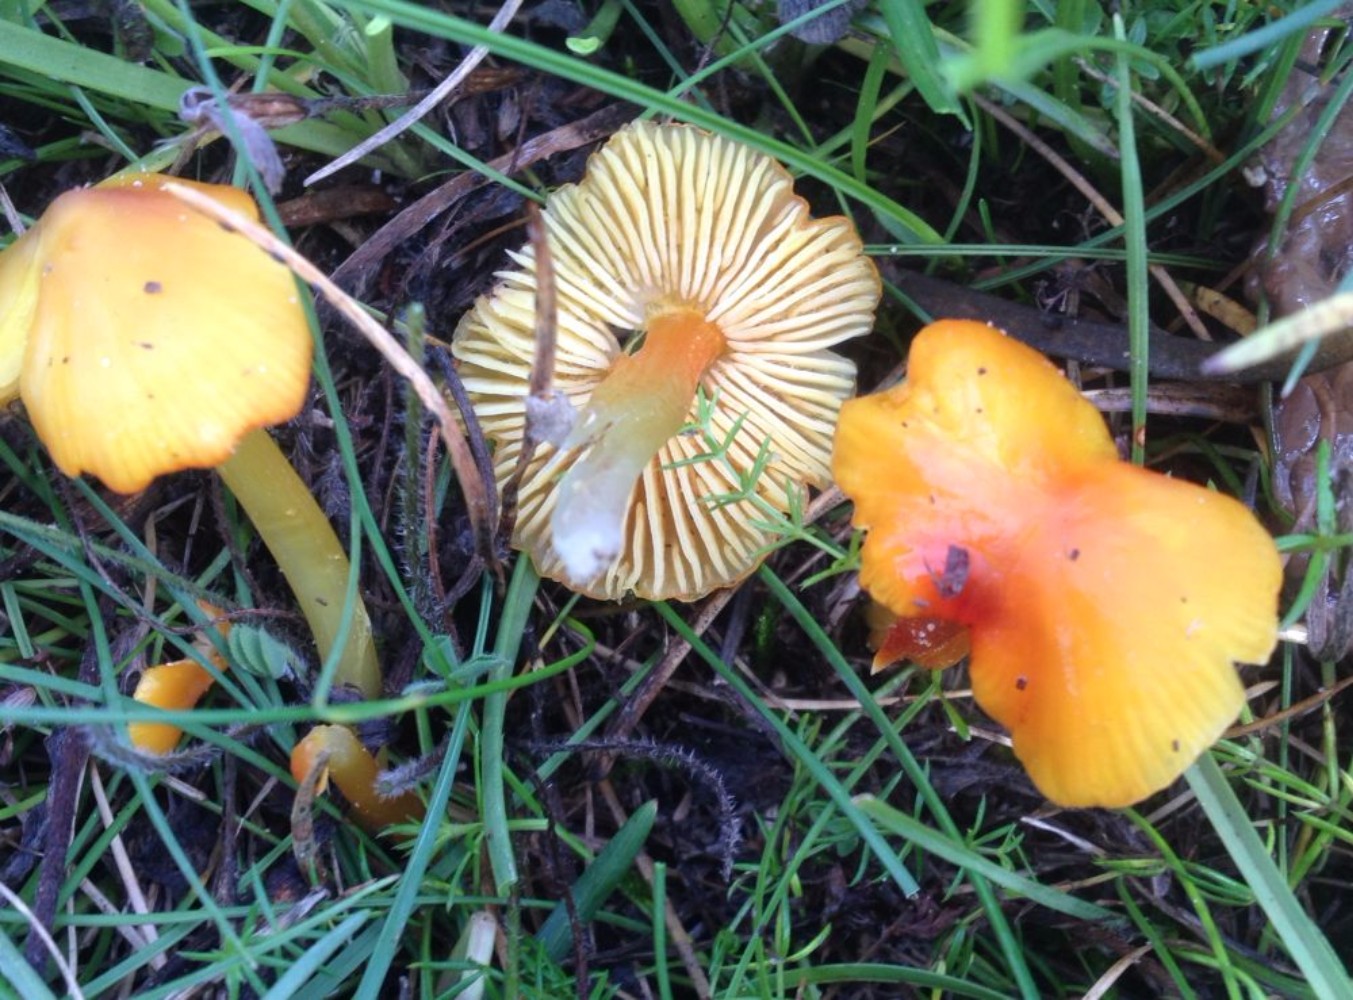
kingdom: Fungi
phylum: Basidiomycota
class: Agaricomycetes
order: Agaricales
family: Hygrophoraceae
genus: Hygrocybe
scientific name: Hygrocybe acutoconica
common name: spidspuklet vokshat
